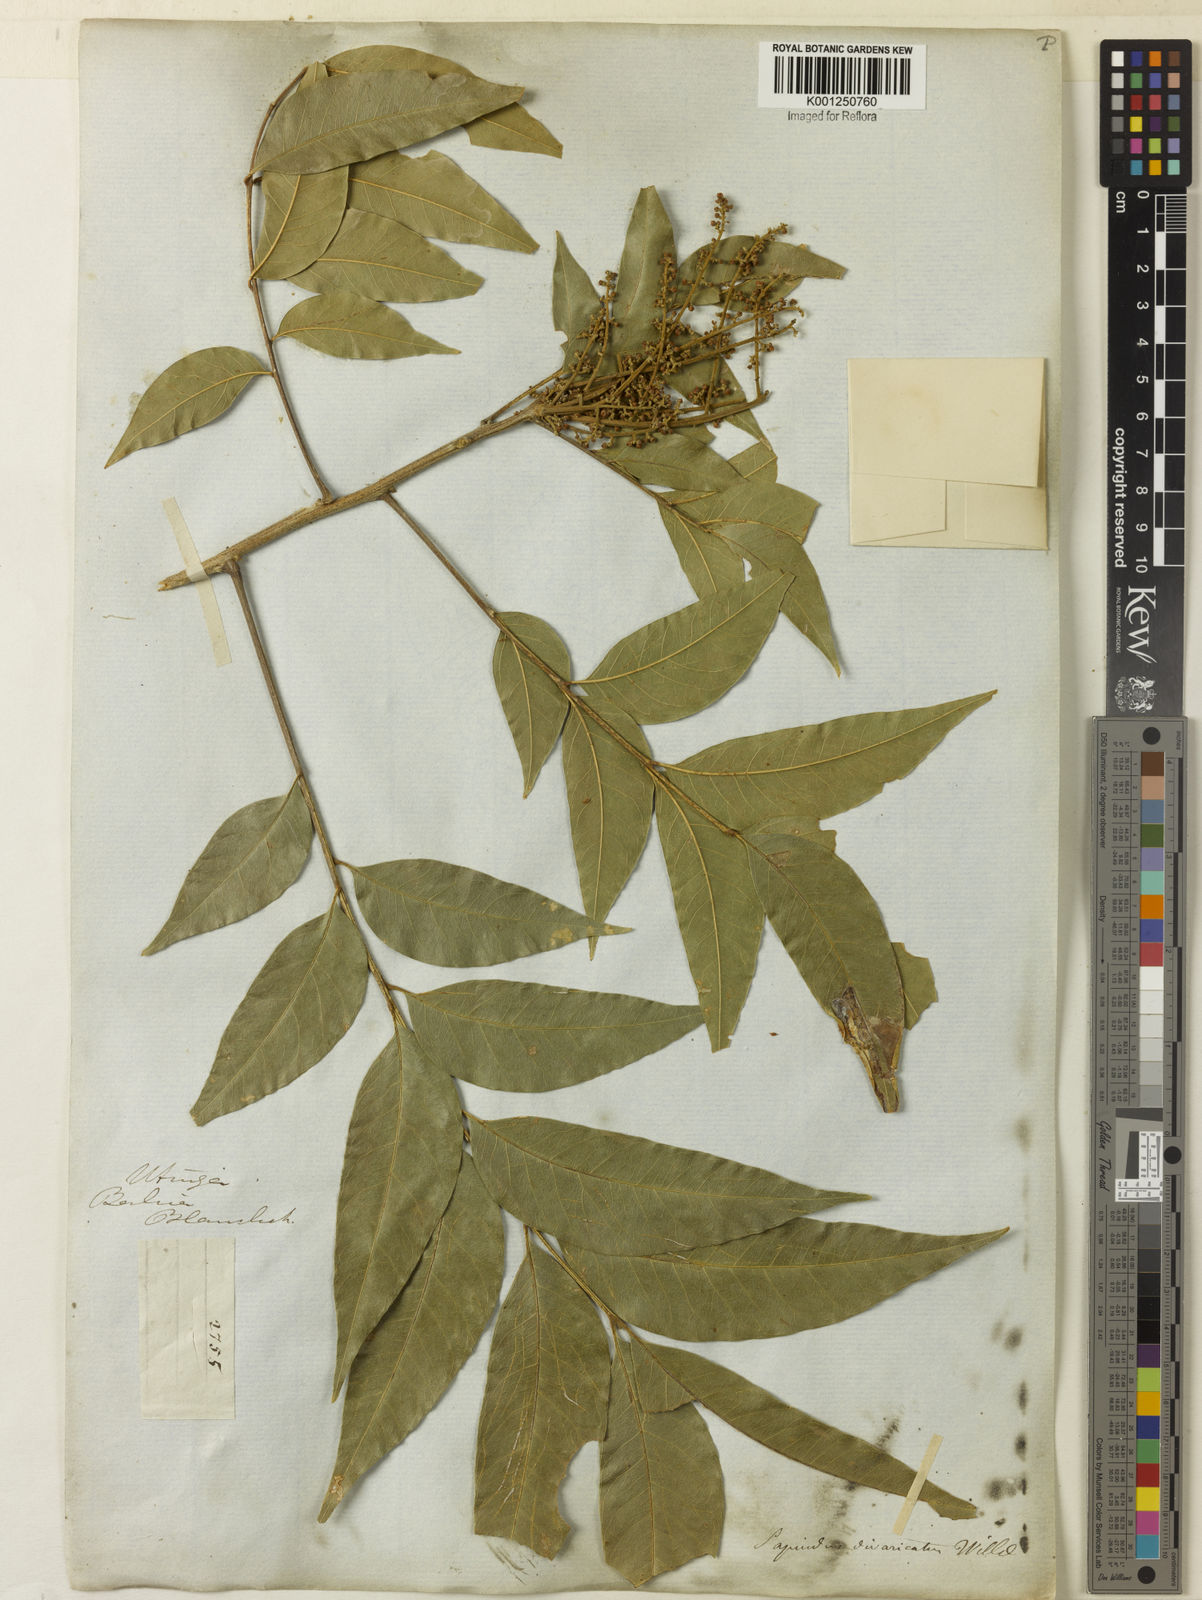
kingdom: Plantae
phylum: Tracheophyta
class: Magnoliopsida
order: Sapindales
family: Sapindaceae
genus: Sapindus
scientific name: Sapindus
